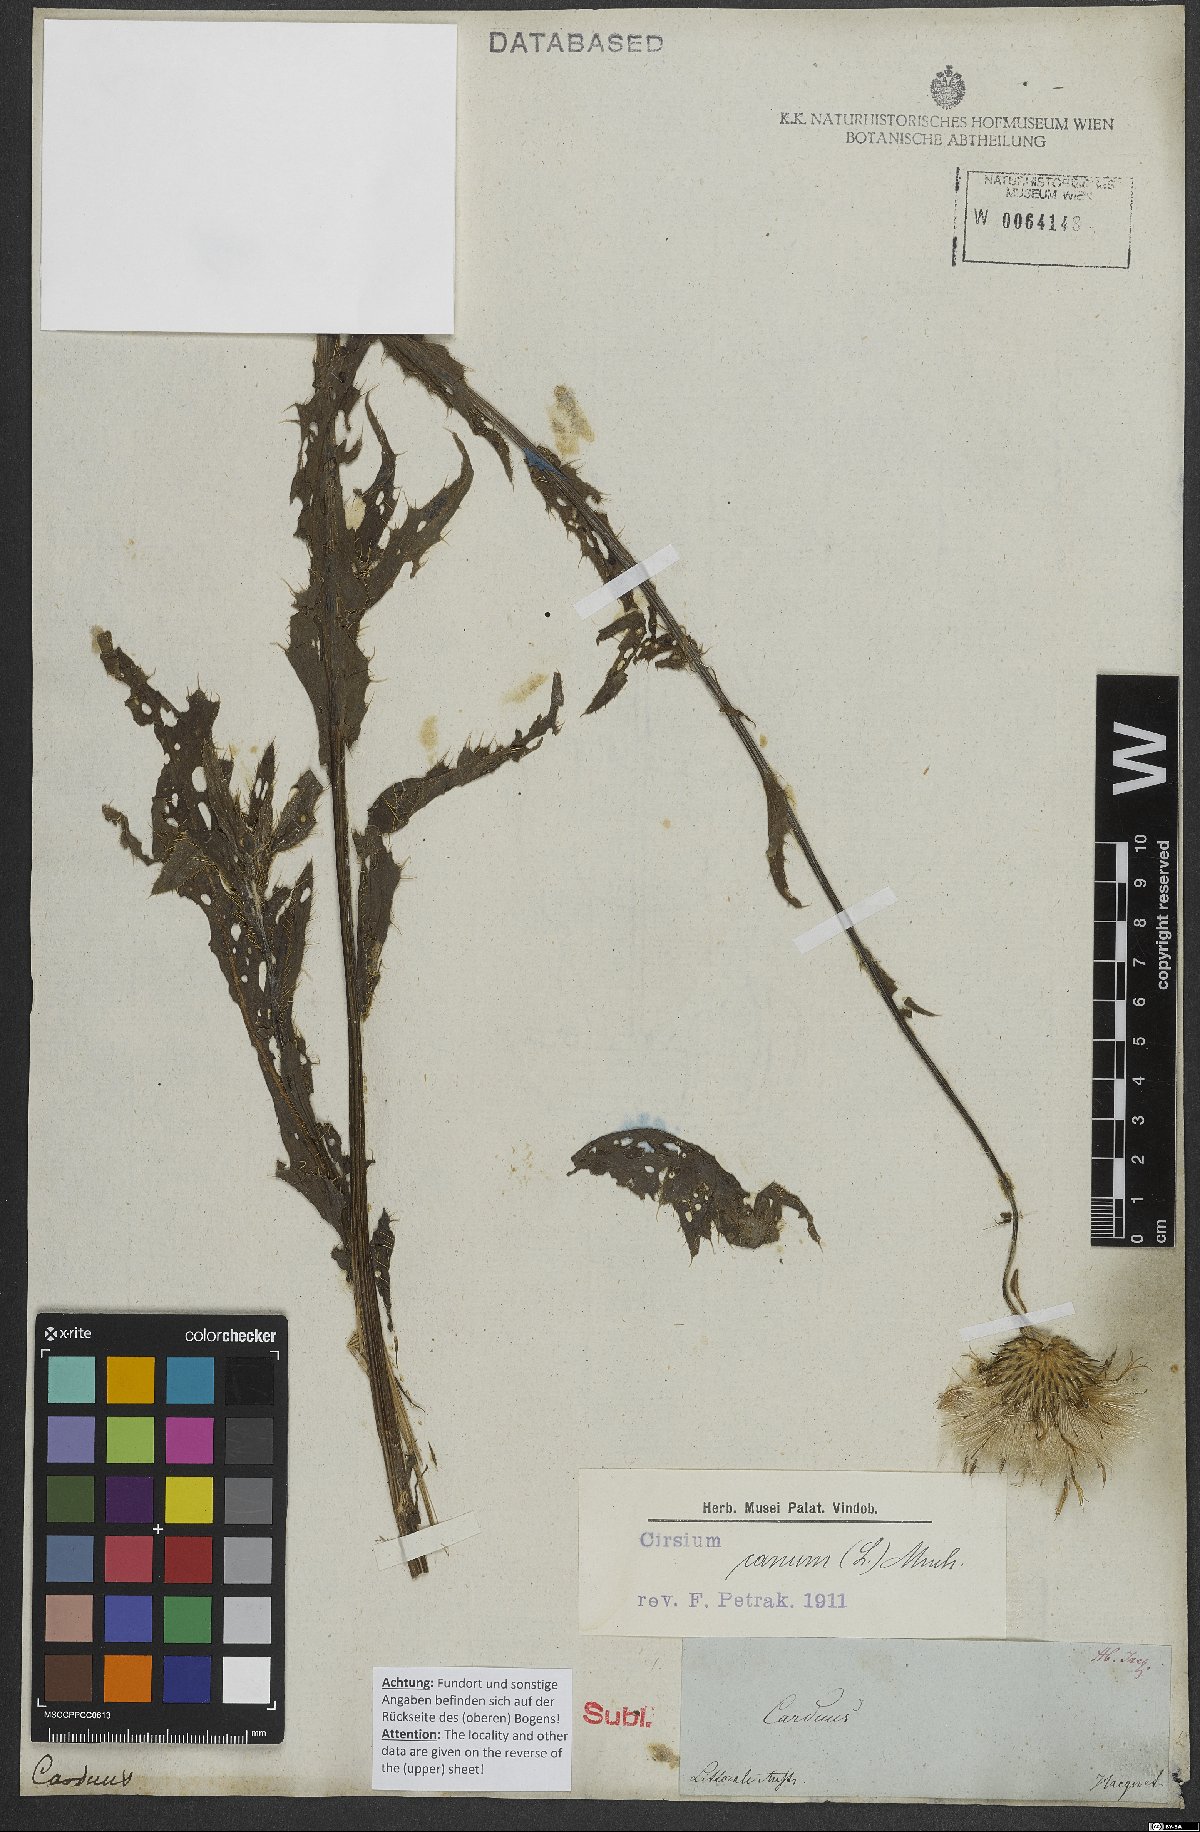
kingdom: Plantae
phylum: Tracheophyta
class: Magnoliopsida
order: Asterales
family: Asteraceae
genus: Cirsium
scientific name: Cirsium canum
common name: Queen anne's thistle
